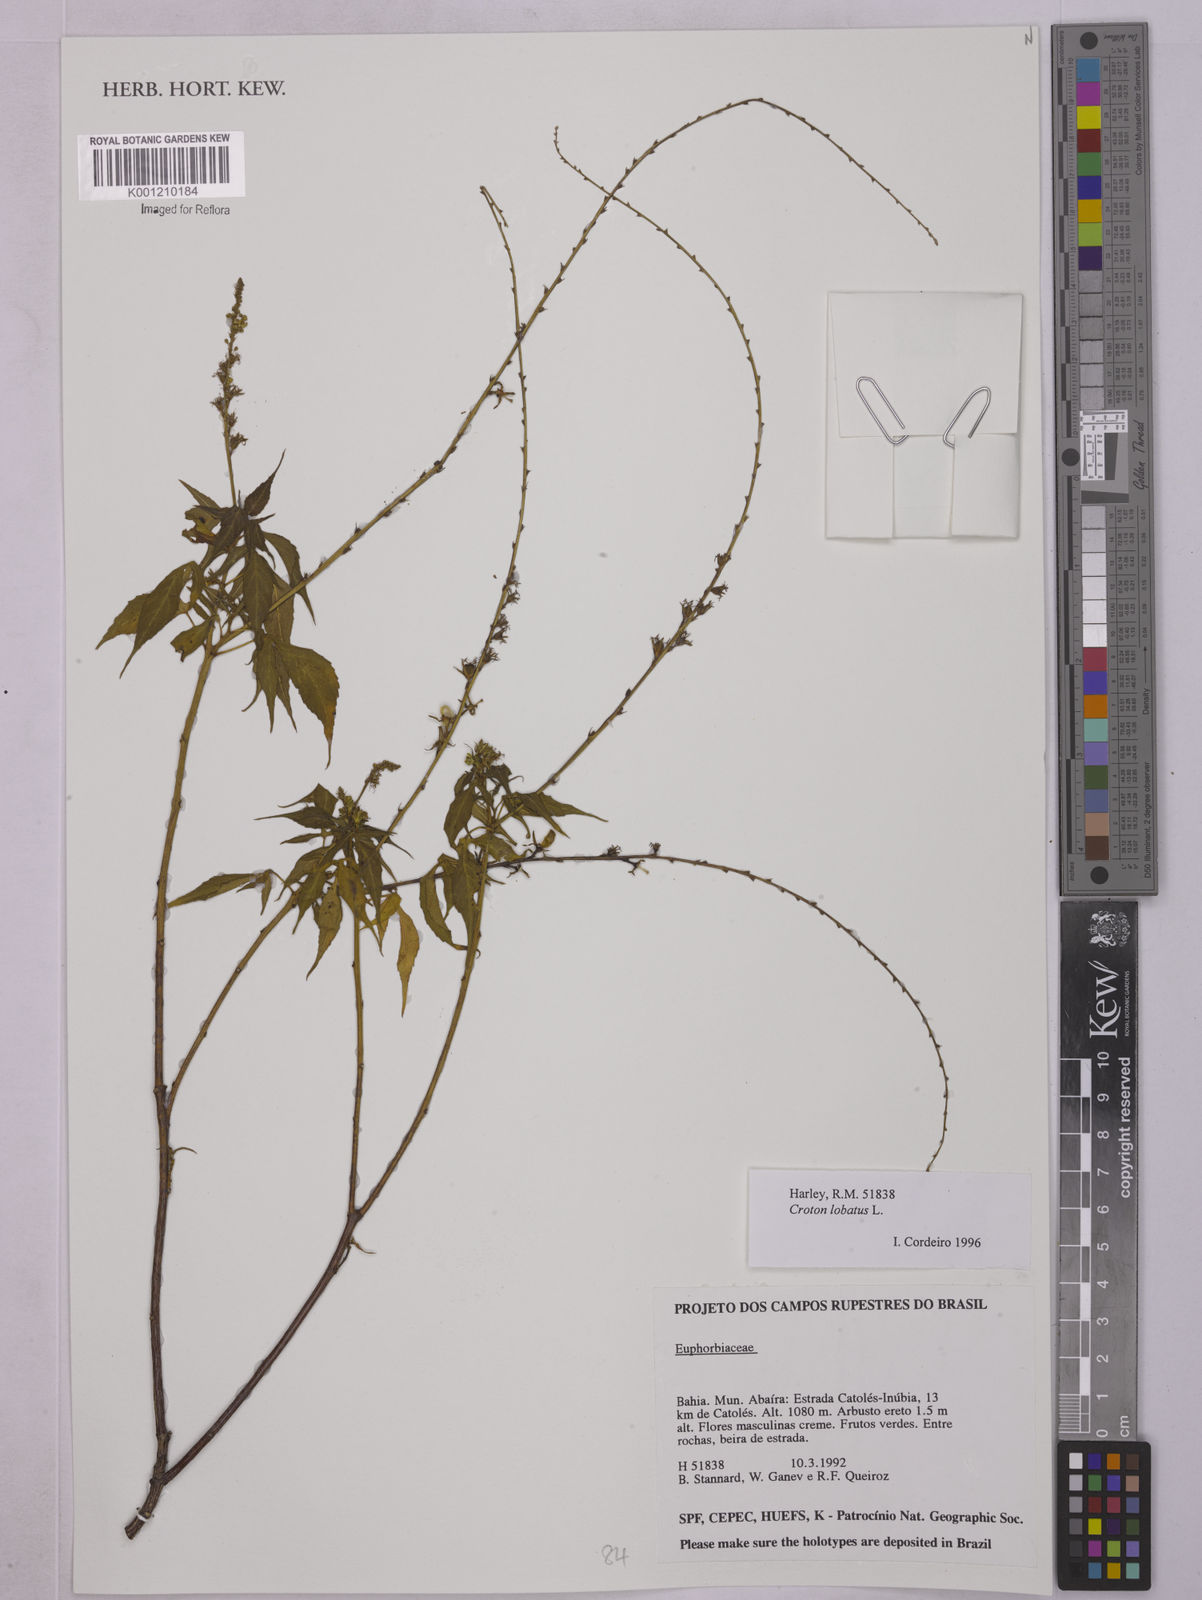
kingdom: Plantae
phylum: Tracheophyta
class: Magnoliopsida
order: Malpighiales
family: Euphorbiaceae
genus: Astraea
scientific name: Astraea lobata
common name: Lobed croton
